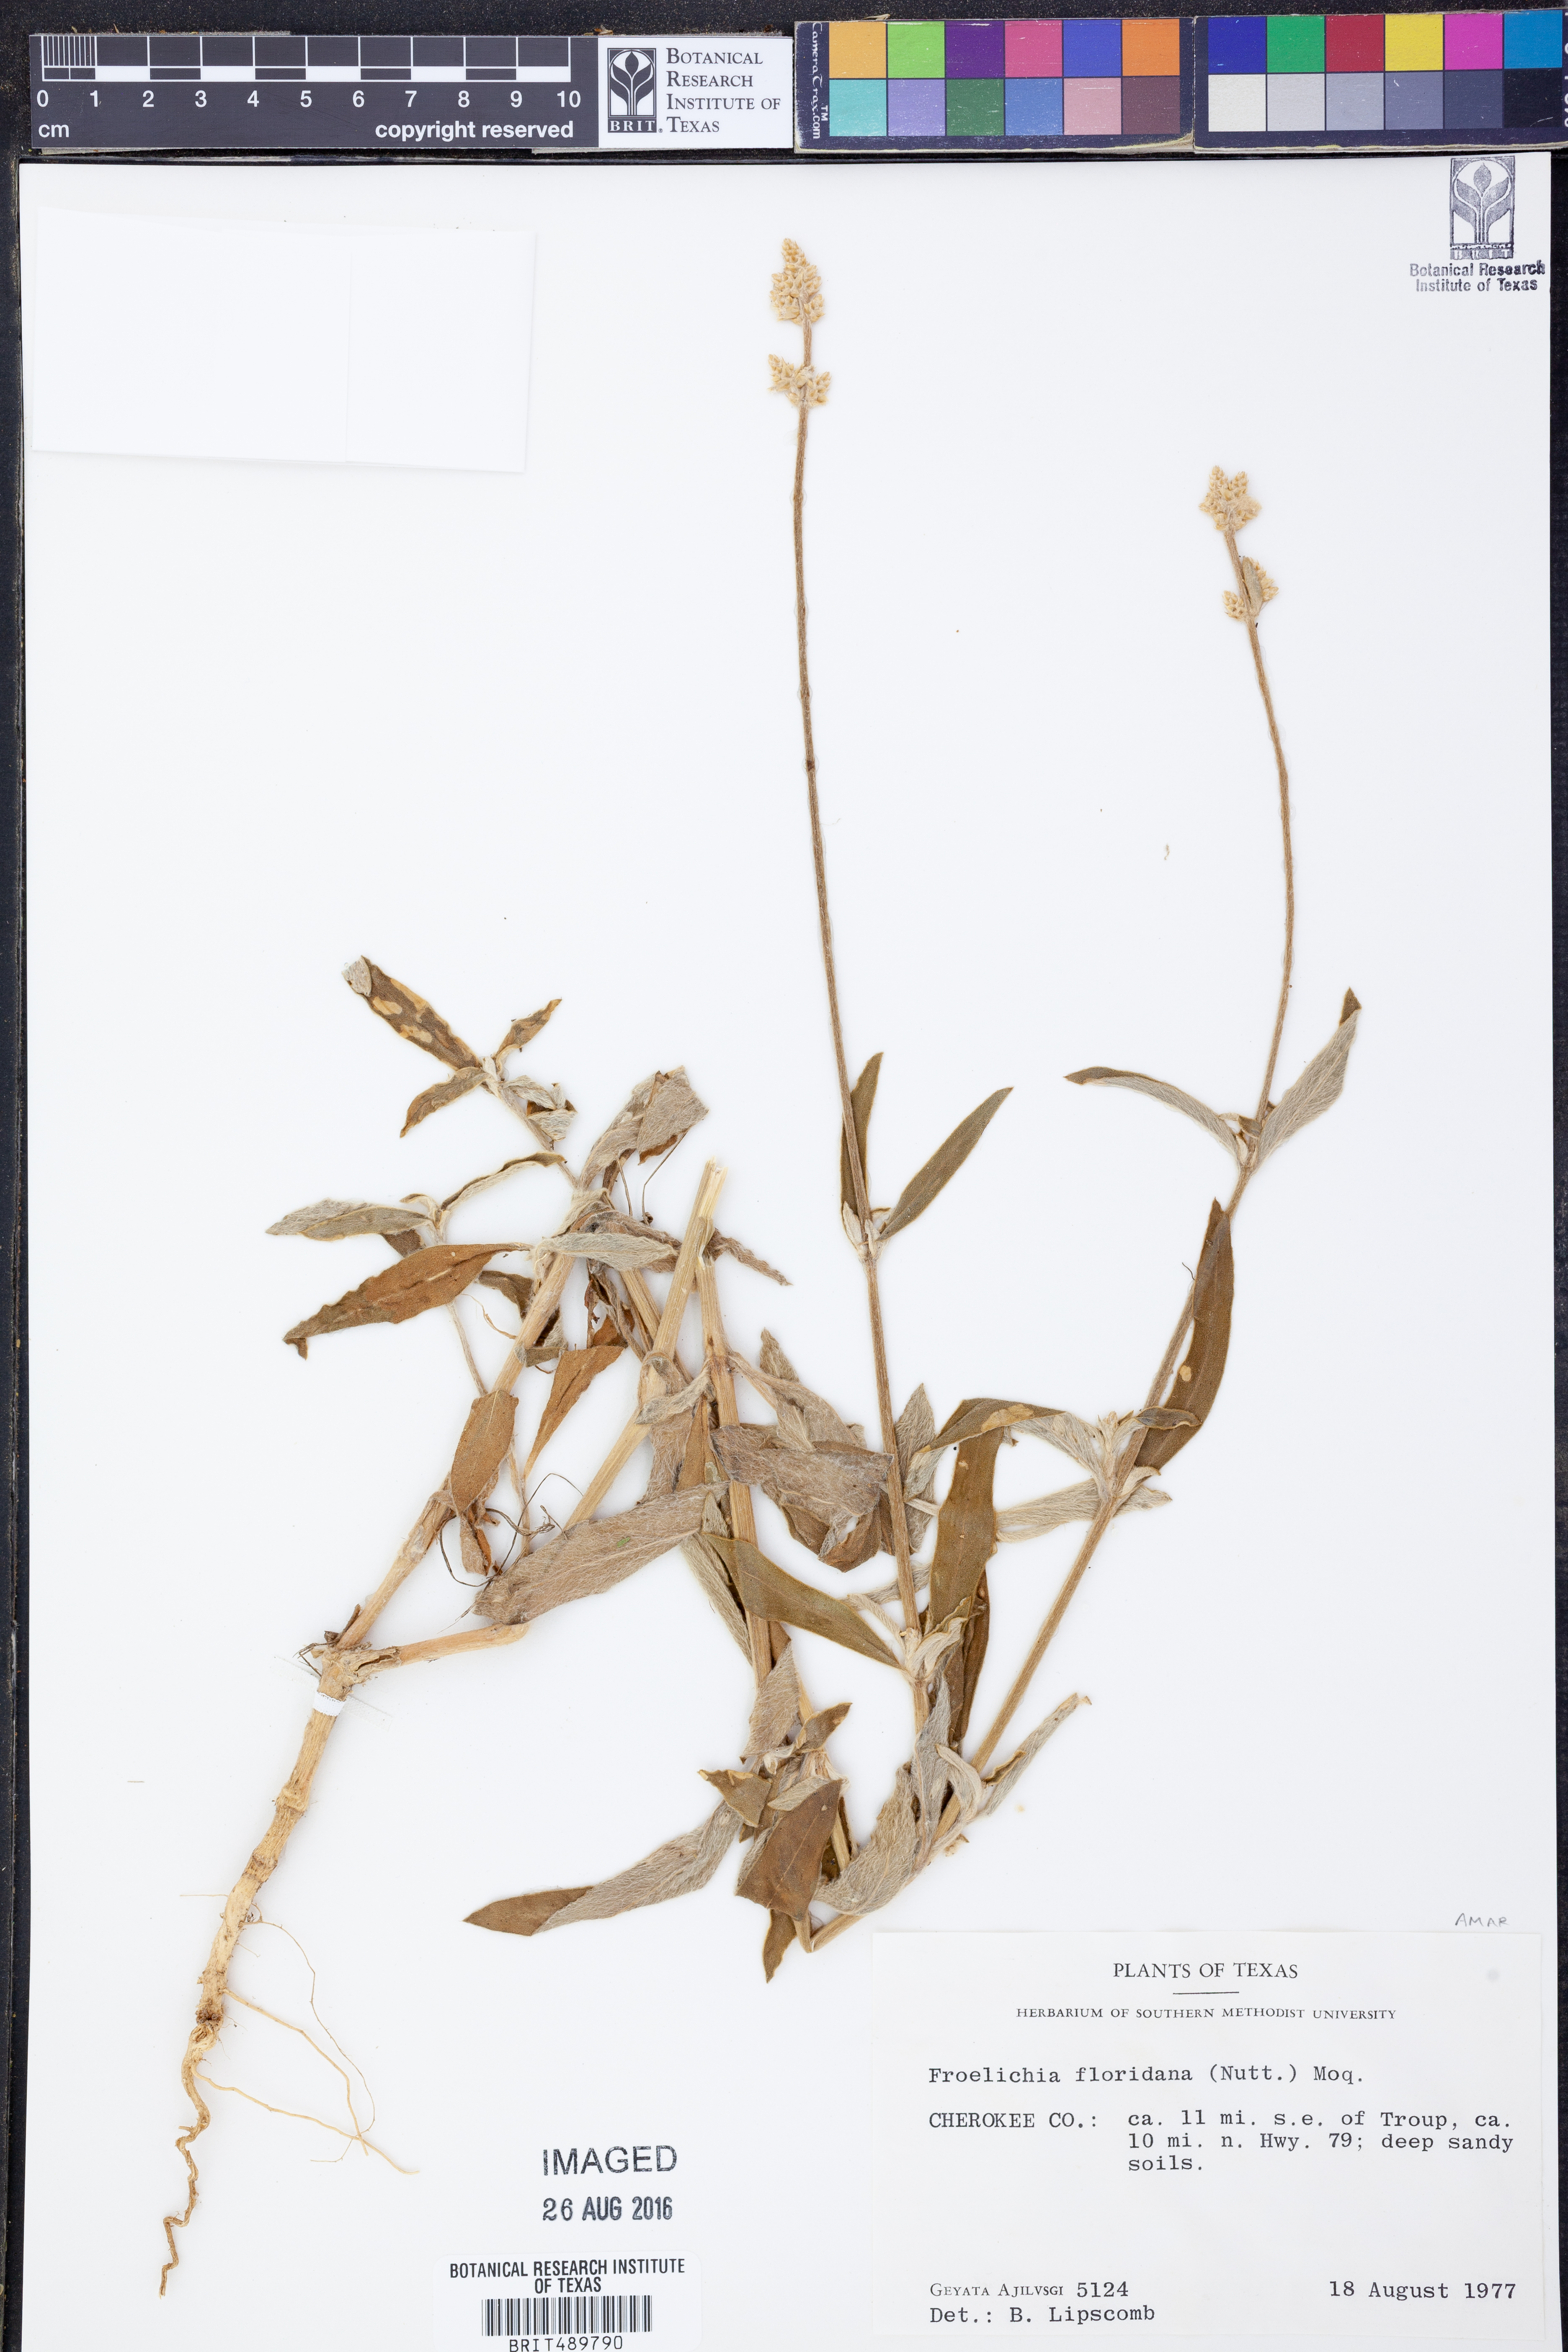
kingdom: Plantae
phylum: Tracheophyta
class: Magnoliopsida
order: Caryophyllales
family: Amaranthaceae
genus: Froelichia
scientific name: Froelichia floridana
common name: Florida snake-cotton
